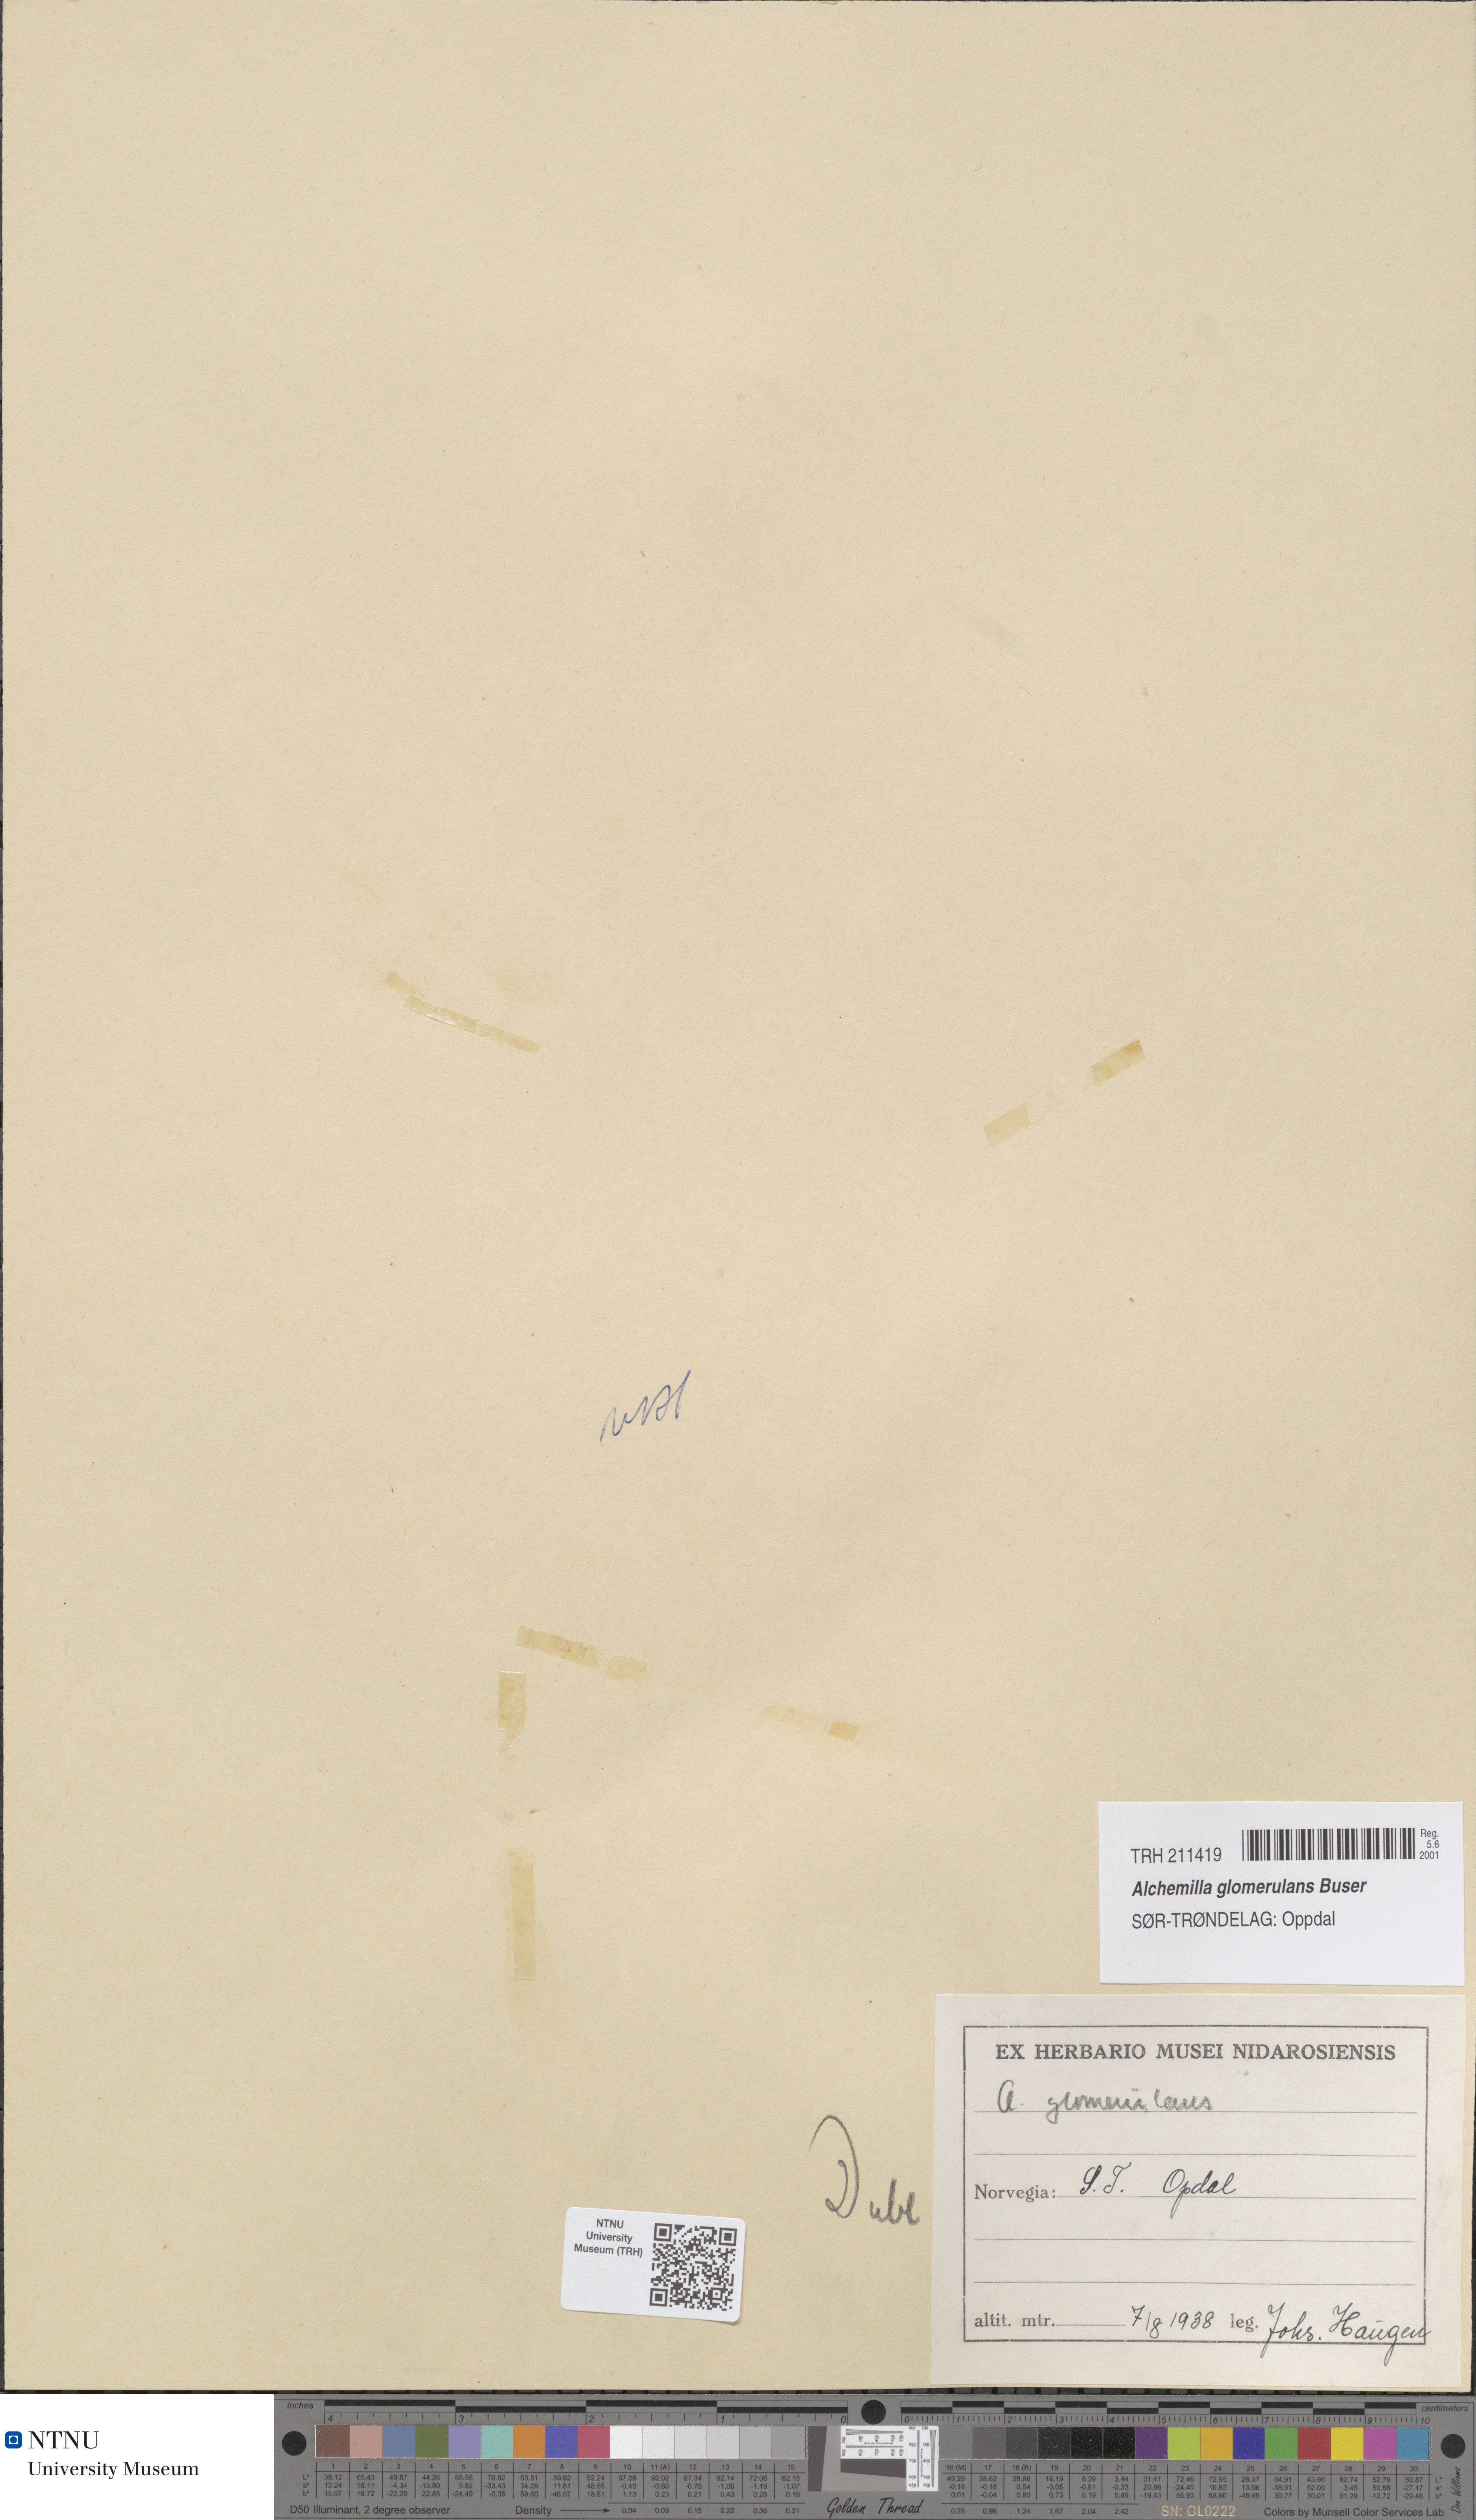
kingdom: Plantae
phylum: Tracheophyta
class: Magnoliopsida
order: Rosales
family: Rosaceae
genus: Alchemilla
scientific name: Alchemilla glomerulans
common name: Clustered lady's mantle
